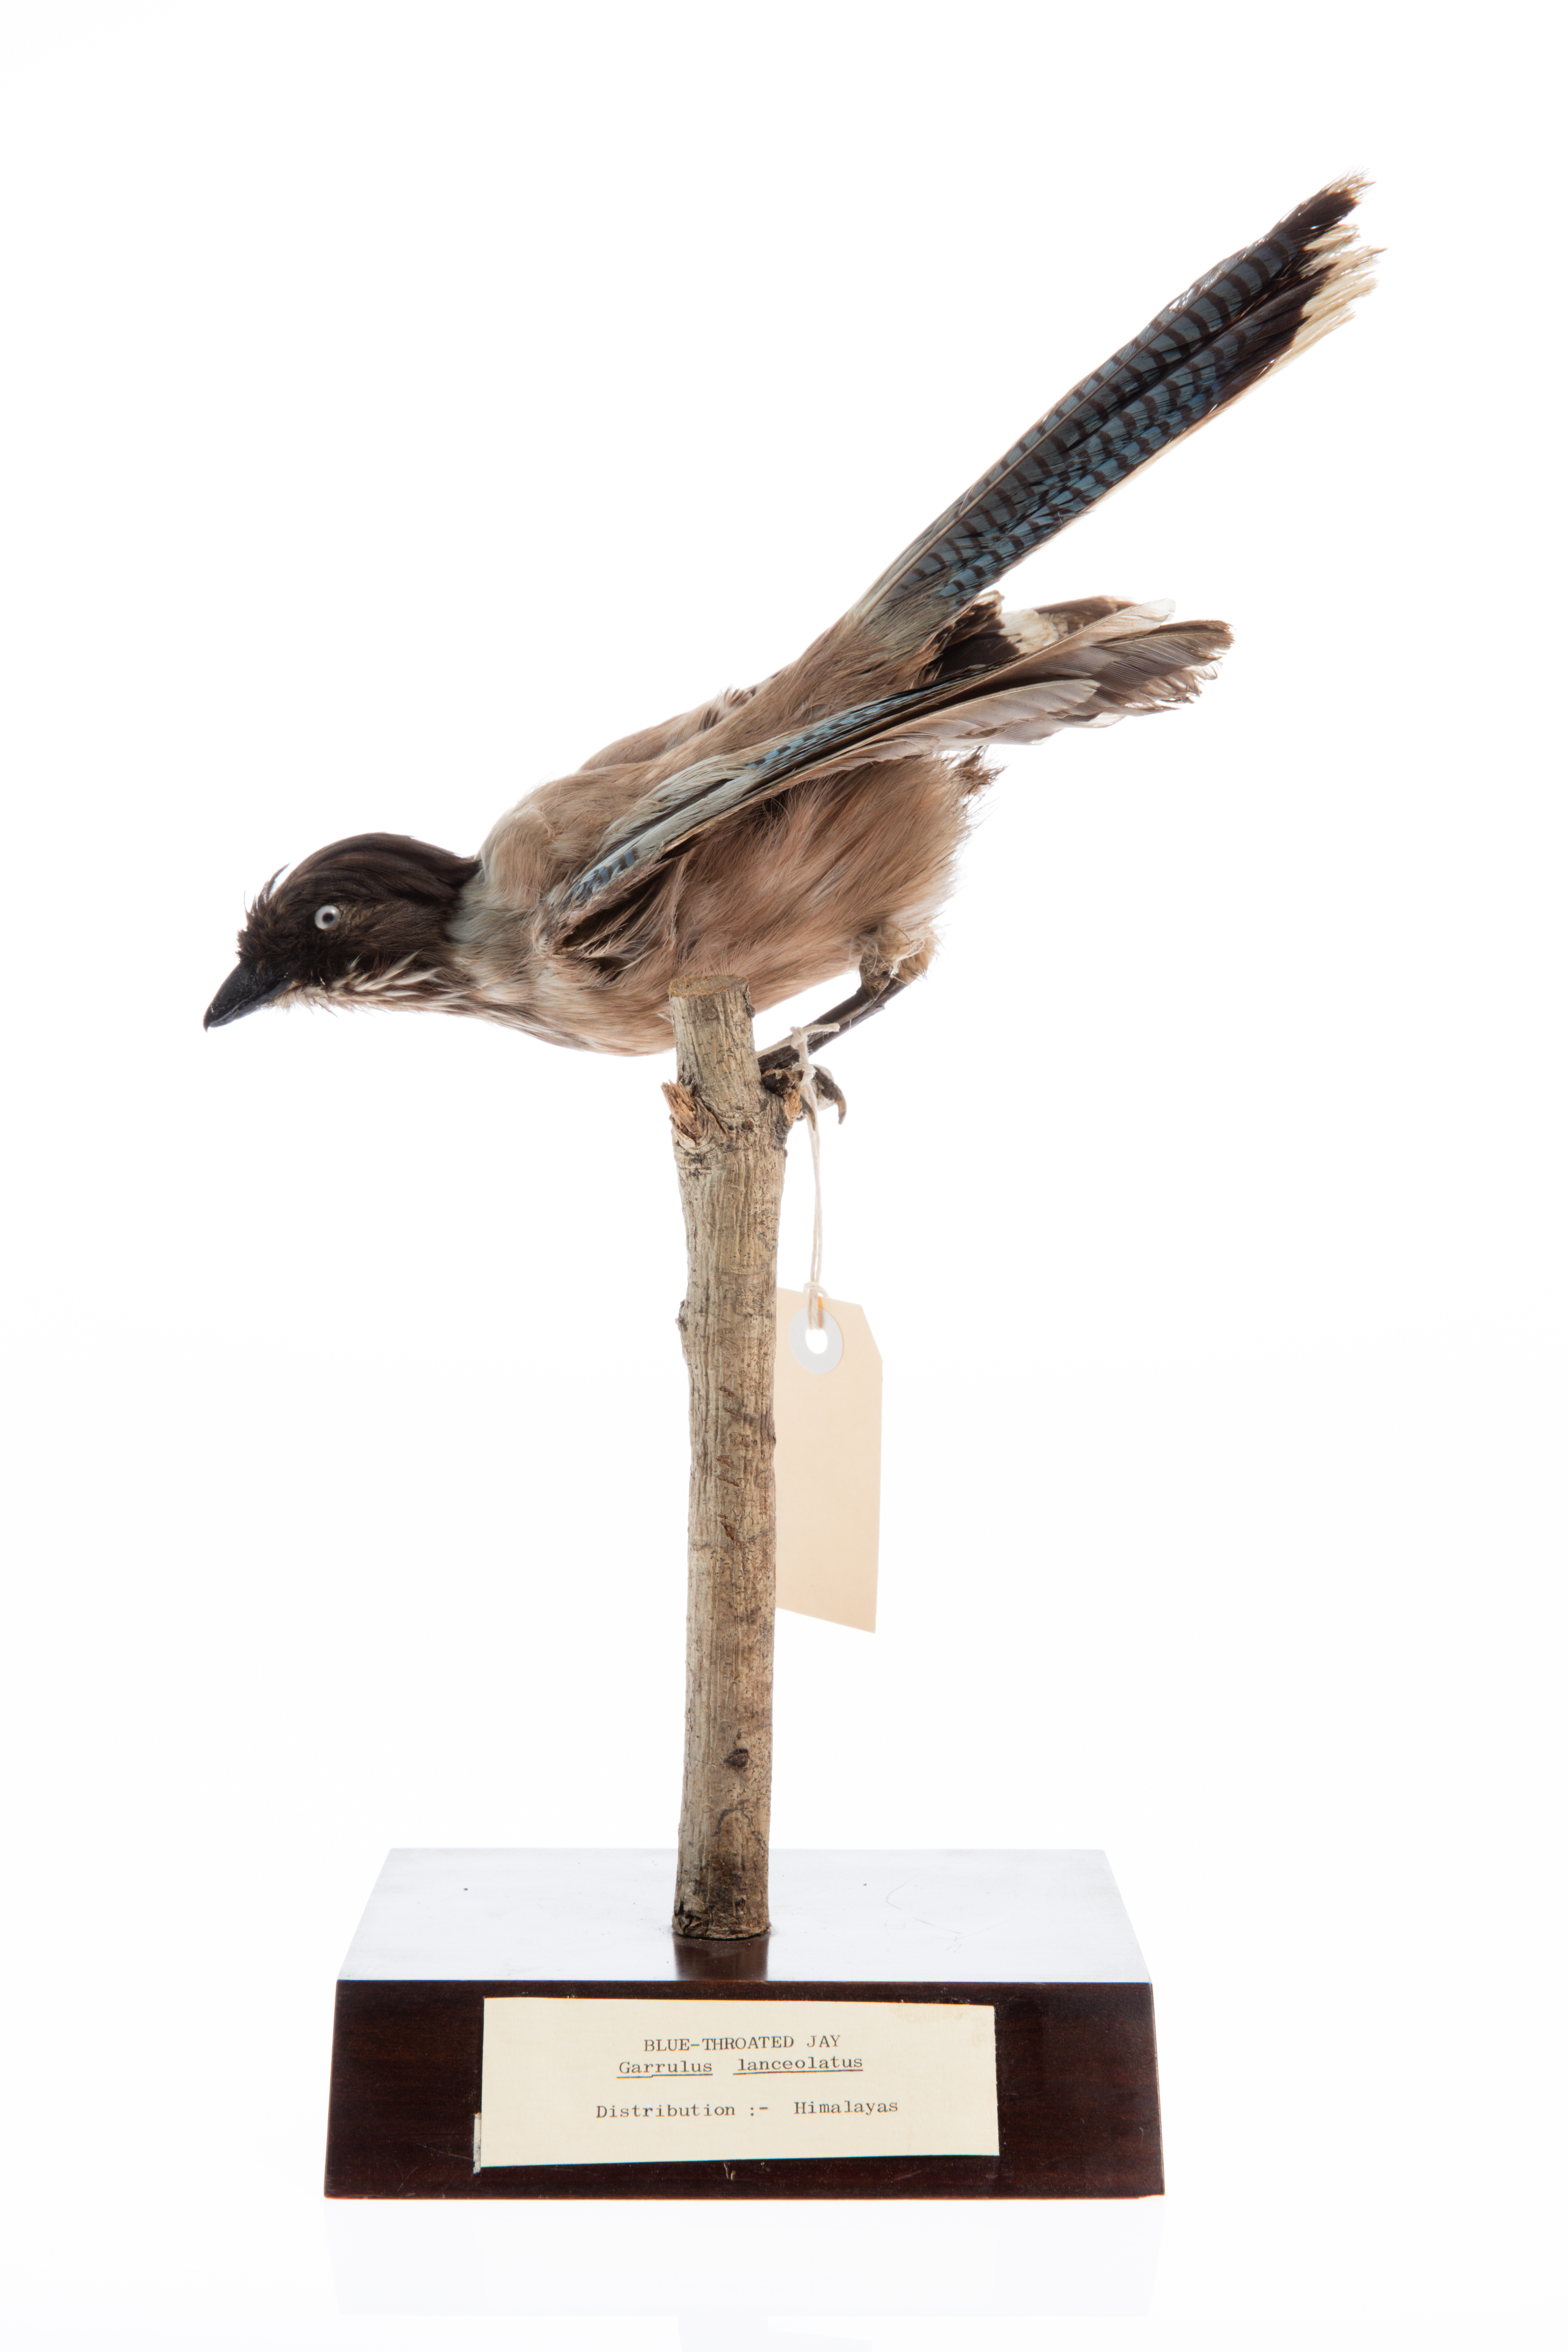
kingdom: Animalia
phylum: Chordata
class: Aves
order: Passeriformes
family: Corvidae
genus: Garrulus
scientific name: Garrulus lanceolatus
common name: Black-headed jay
